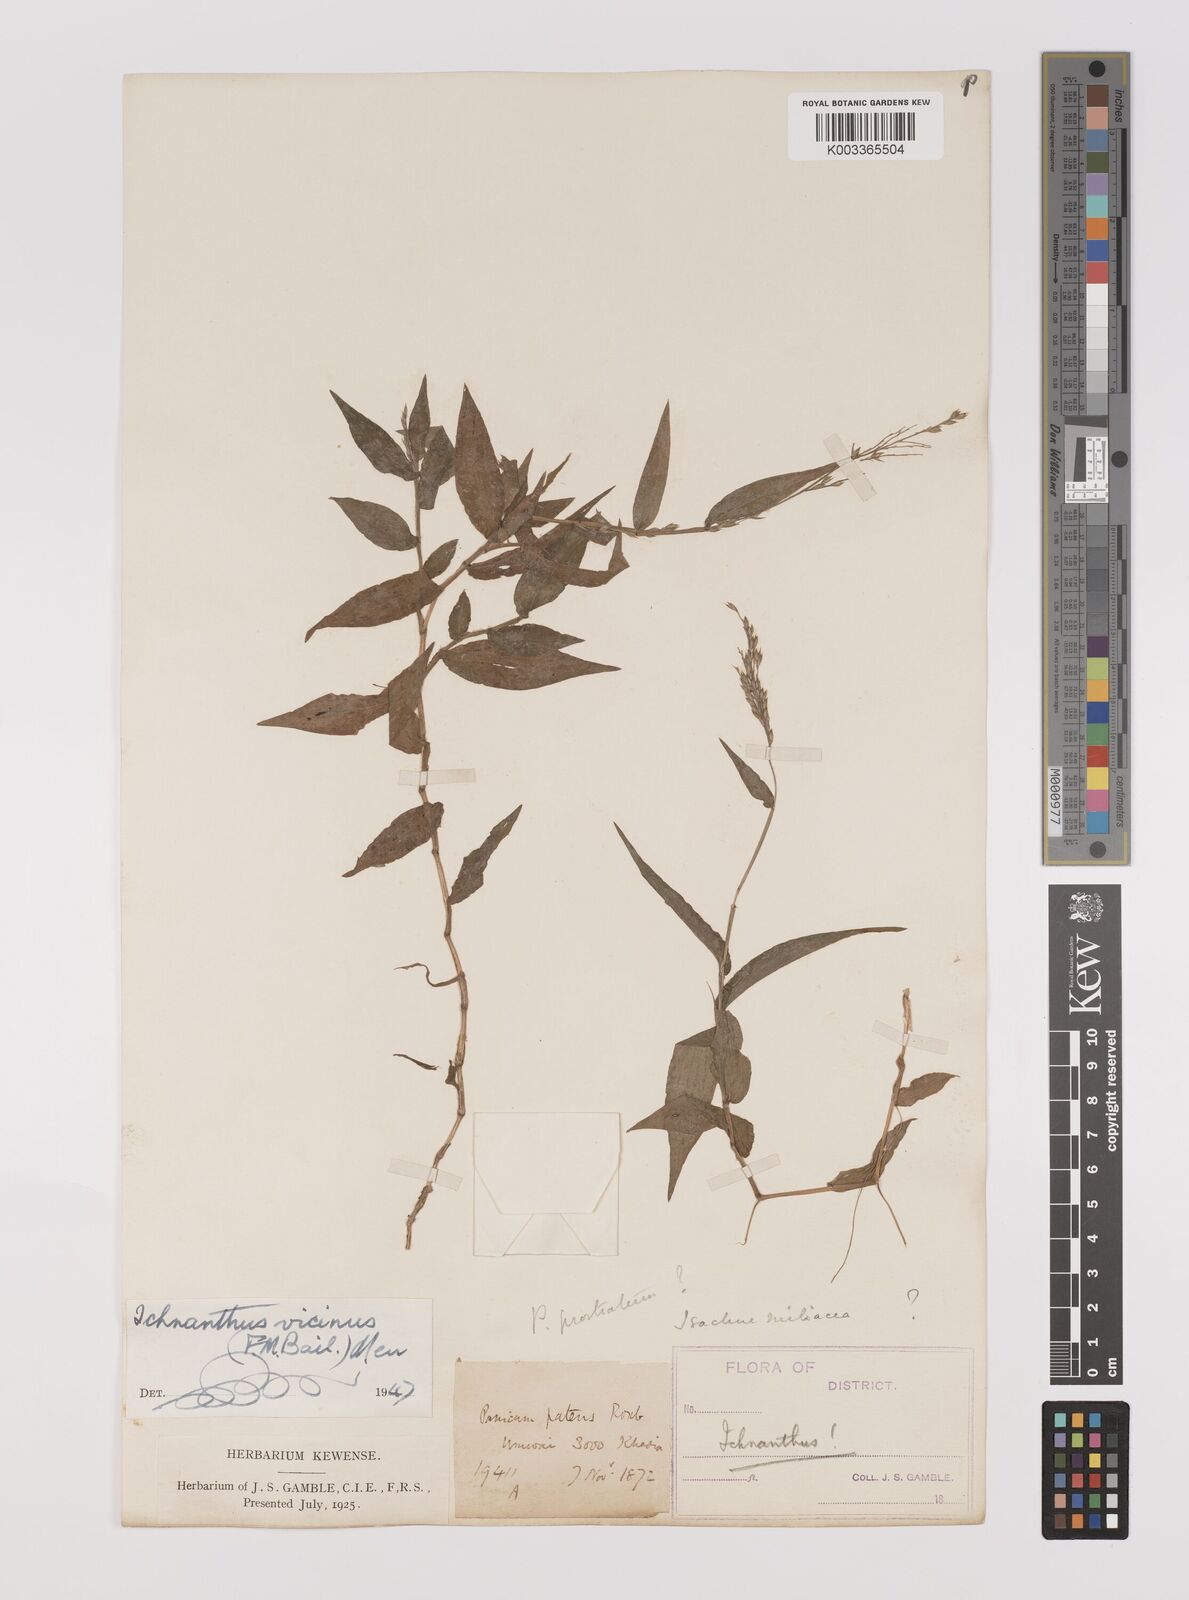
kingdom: Plantae
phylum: Tracheophyta
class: Liliopsida
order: Poales
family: Poaceae
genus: Ichnanthus
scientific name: Ichnanthus pallens
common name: Water grass
